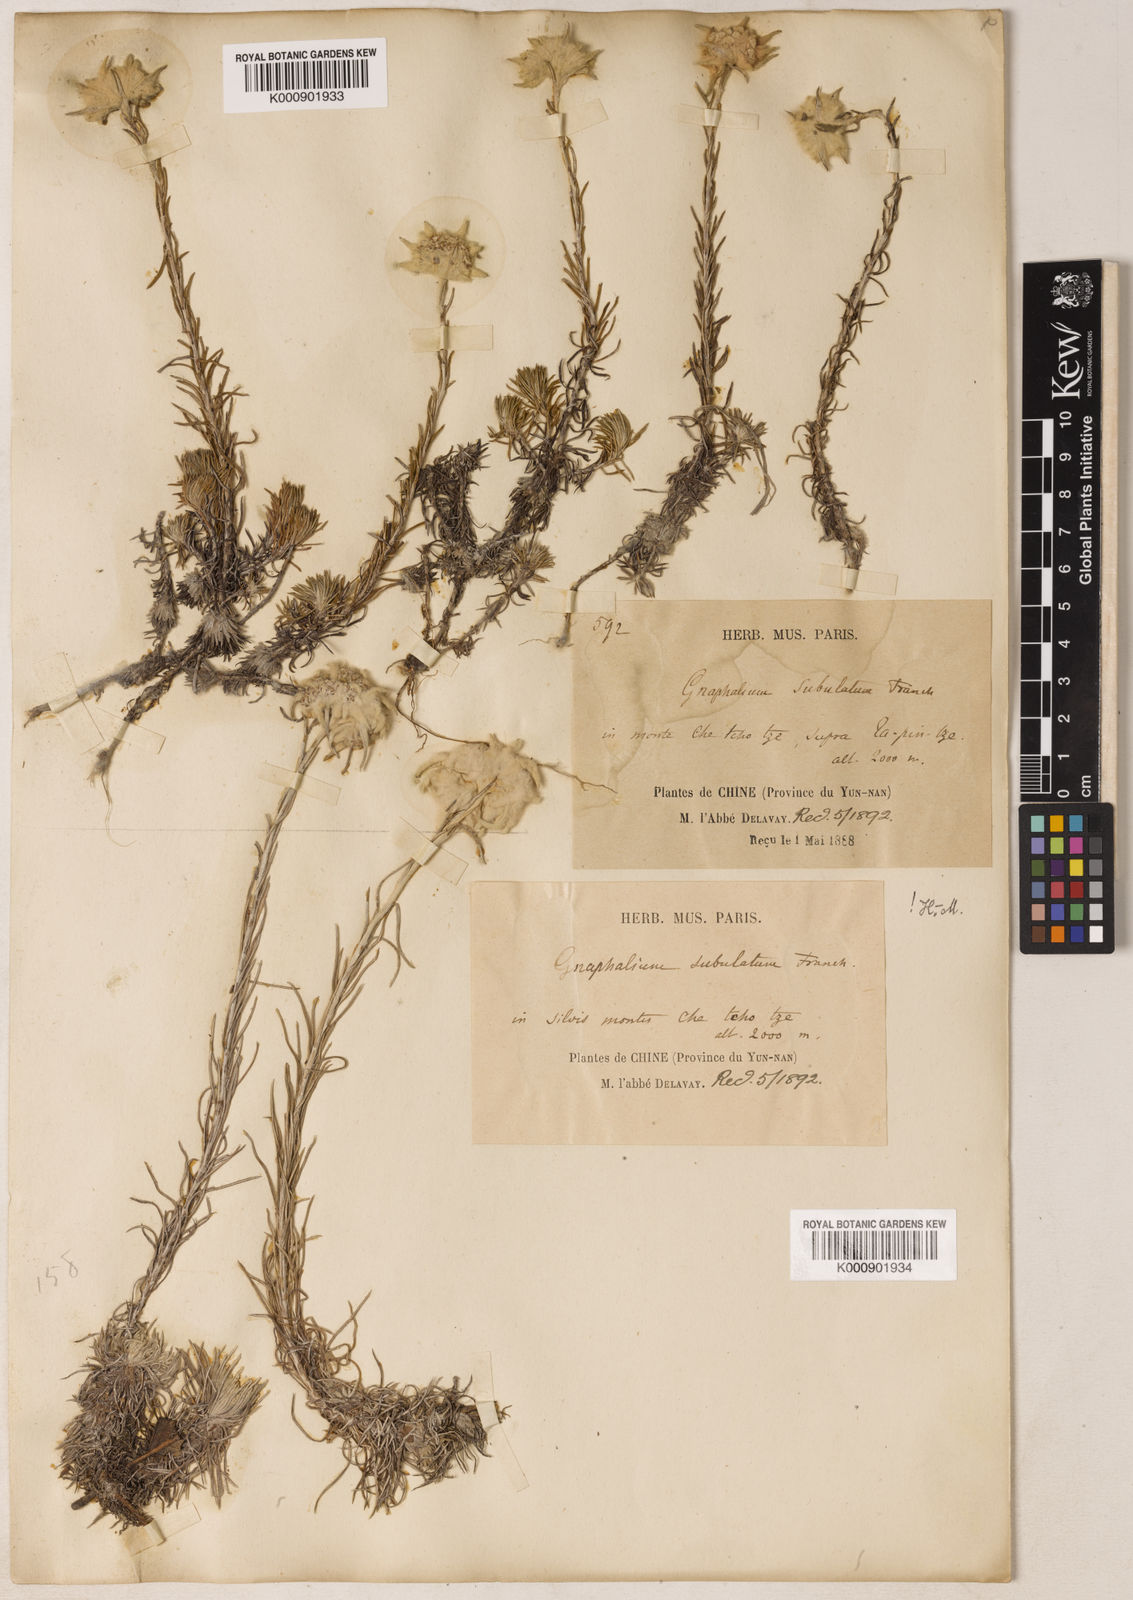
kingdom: Plantae
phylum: Tracheophyta
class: Magnoliopsida
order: Asterales
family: Asteraceae
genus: Leontopodium
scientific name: Leontopodium andersonii
